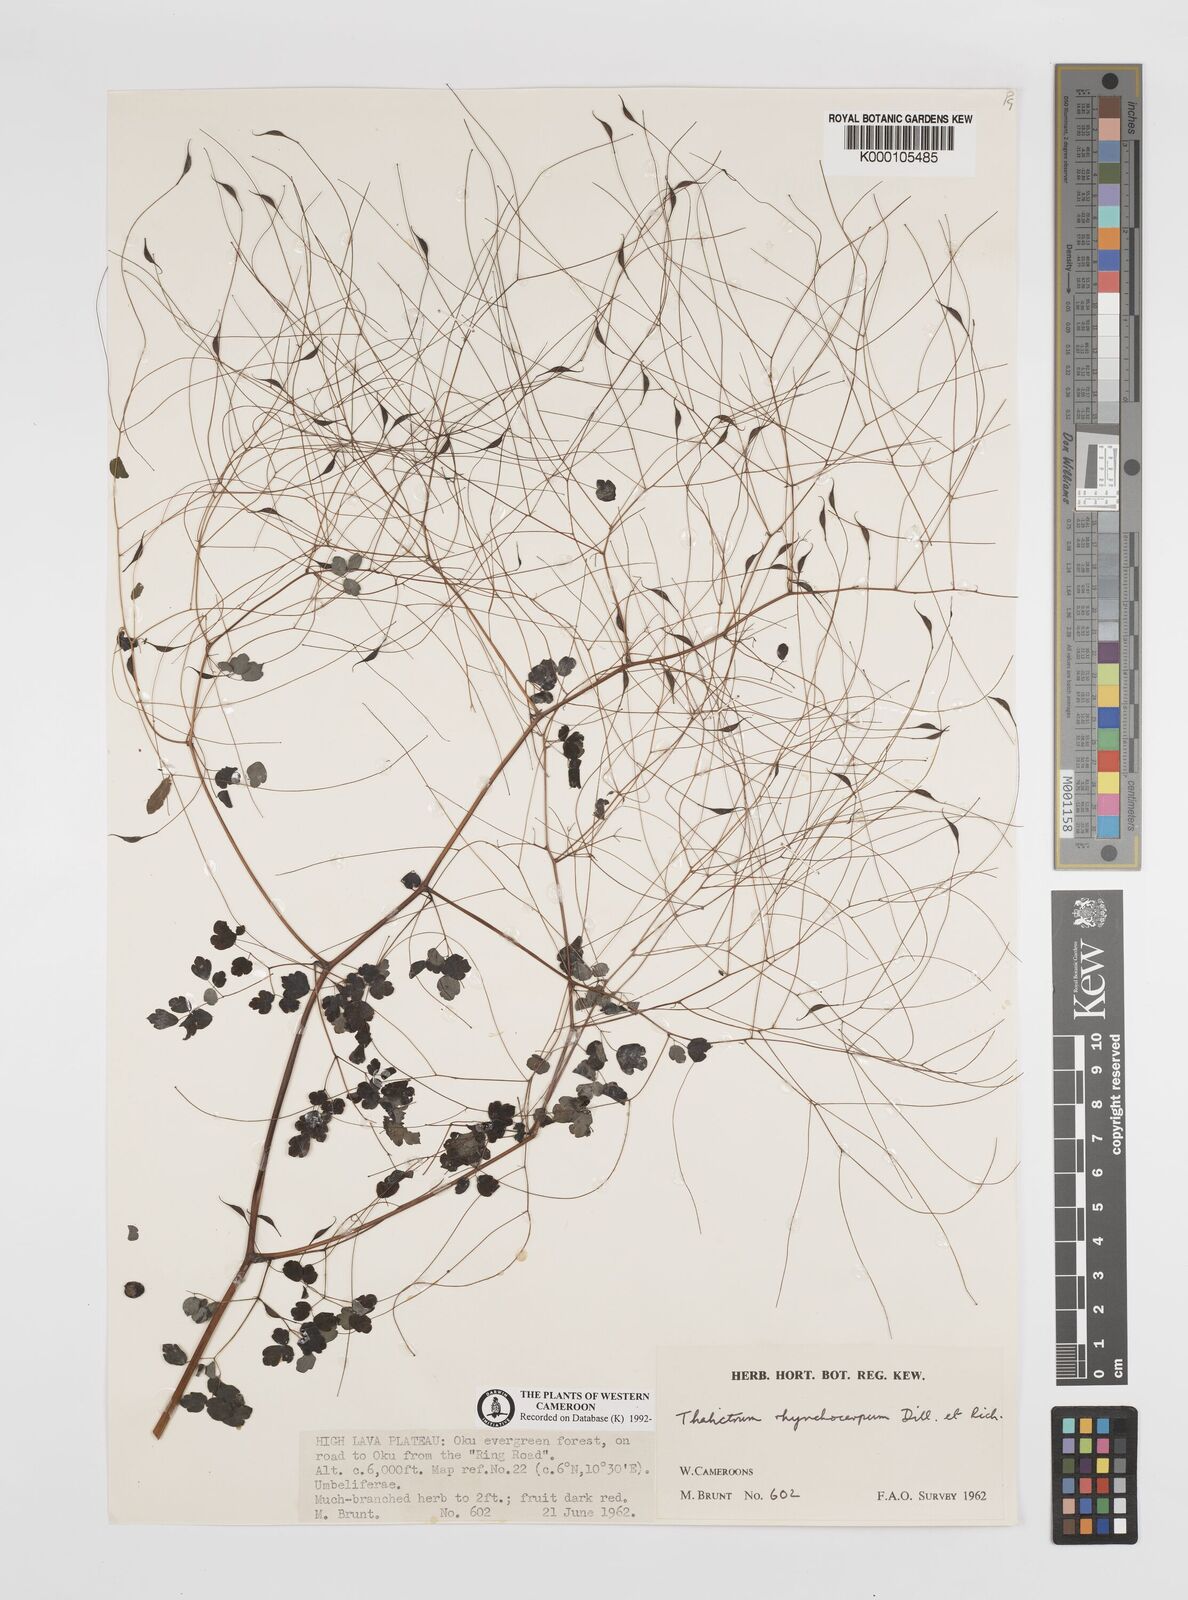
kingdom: Plantae
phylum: Tracheophyta
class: Magnoliopsida
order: Ranunculales
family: Ranunculaceae
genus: Thalictrum
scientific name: Thalictrum
